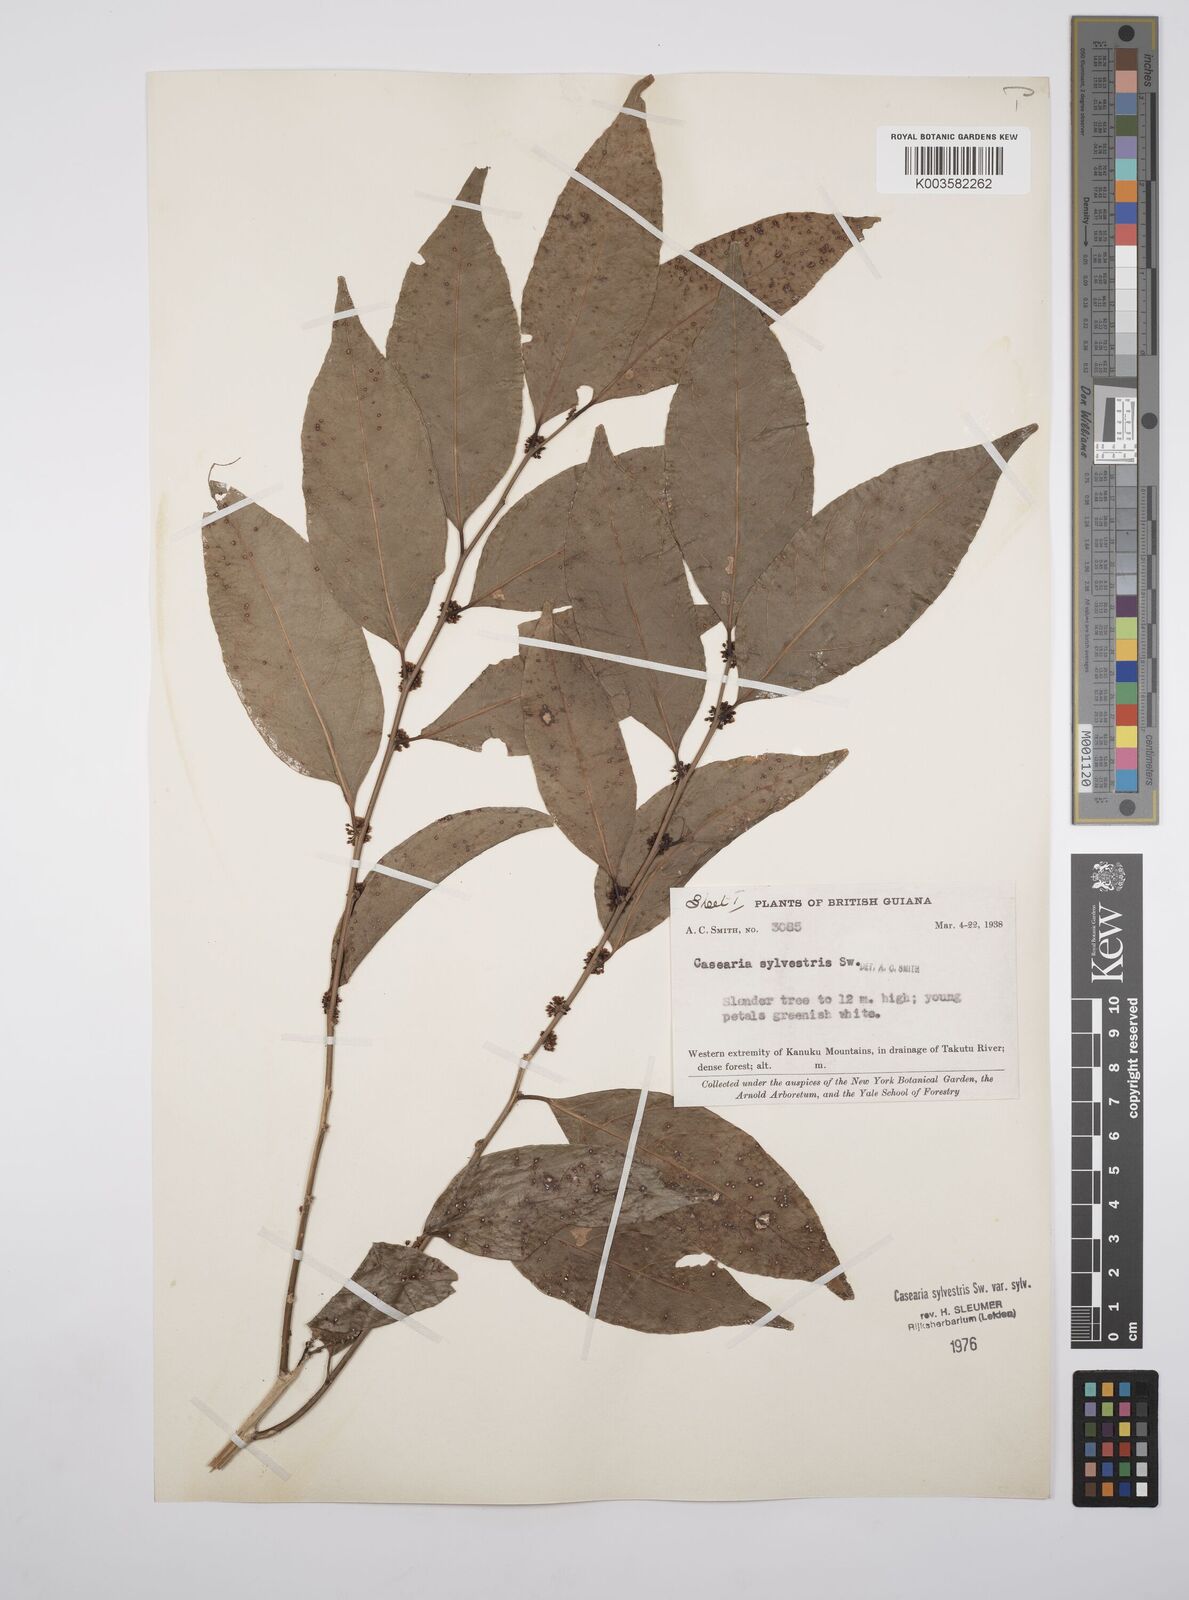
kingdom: Plantae
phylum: Tracheophyta
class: Magnoliopsida
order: Malpighiales
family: Salicaceae
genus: Casearia
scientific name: Casearia sylvestris
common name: Wild sage
